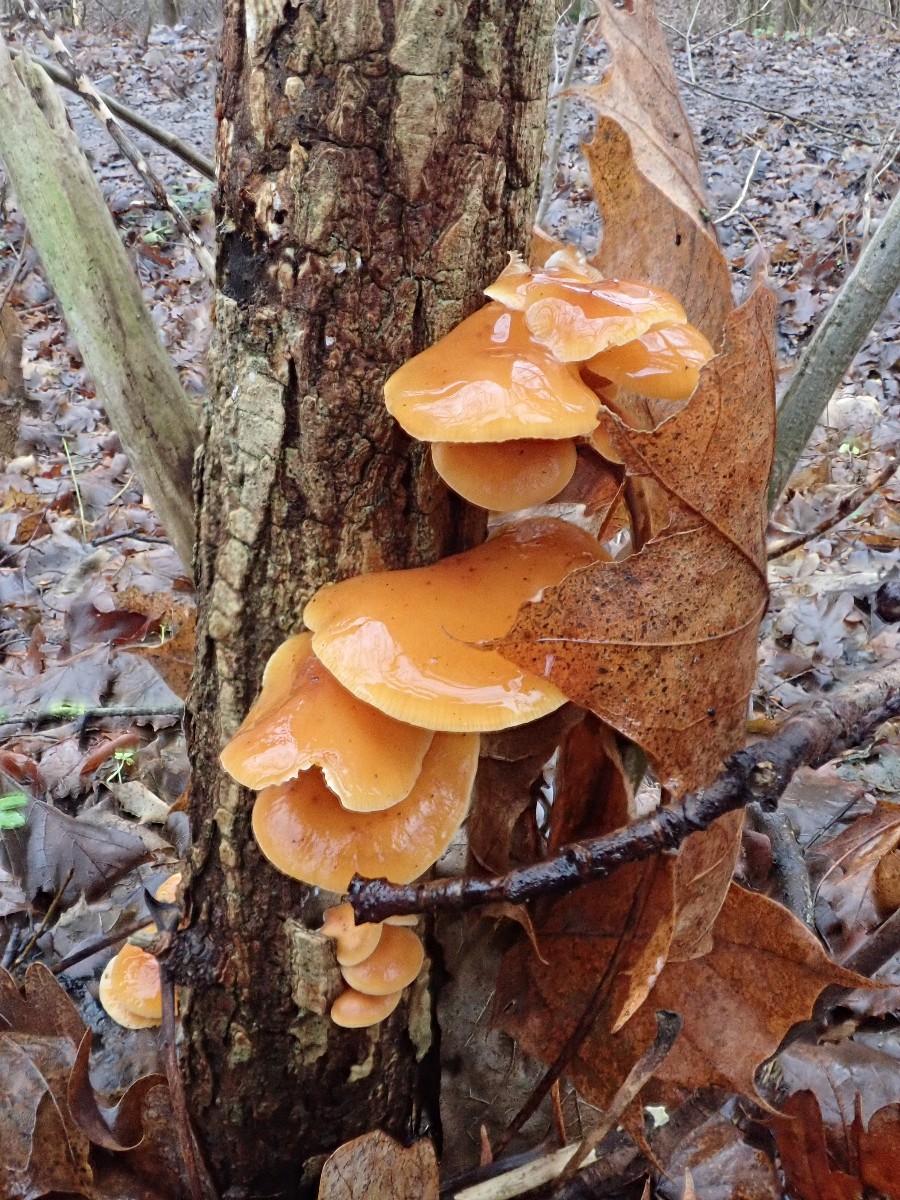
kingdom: Fungi
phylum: Basidiomycota
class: Agaricomycetes
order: Agaricales
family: Physalacriaceae
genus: Flammulina
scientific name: Flammulina velutipes
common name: gul fløjlsfod
